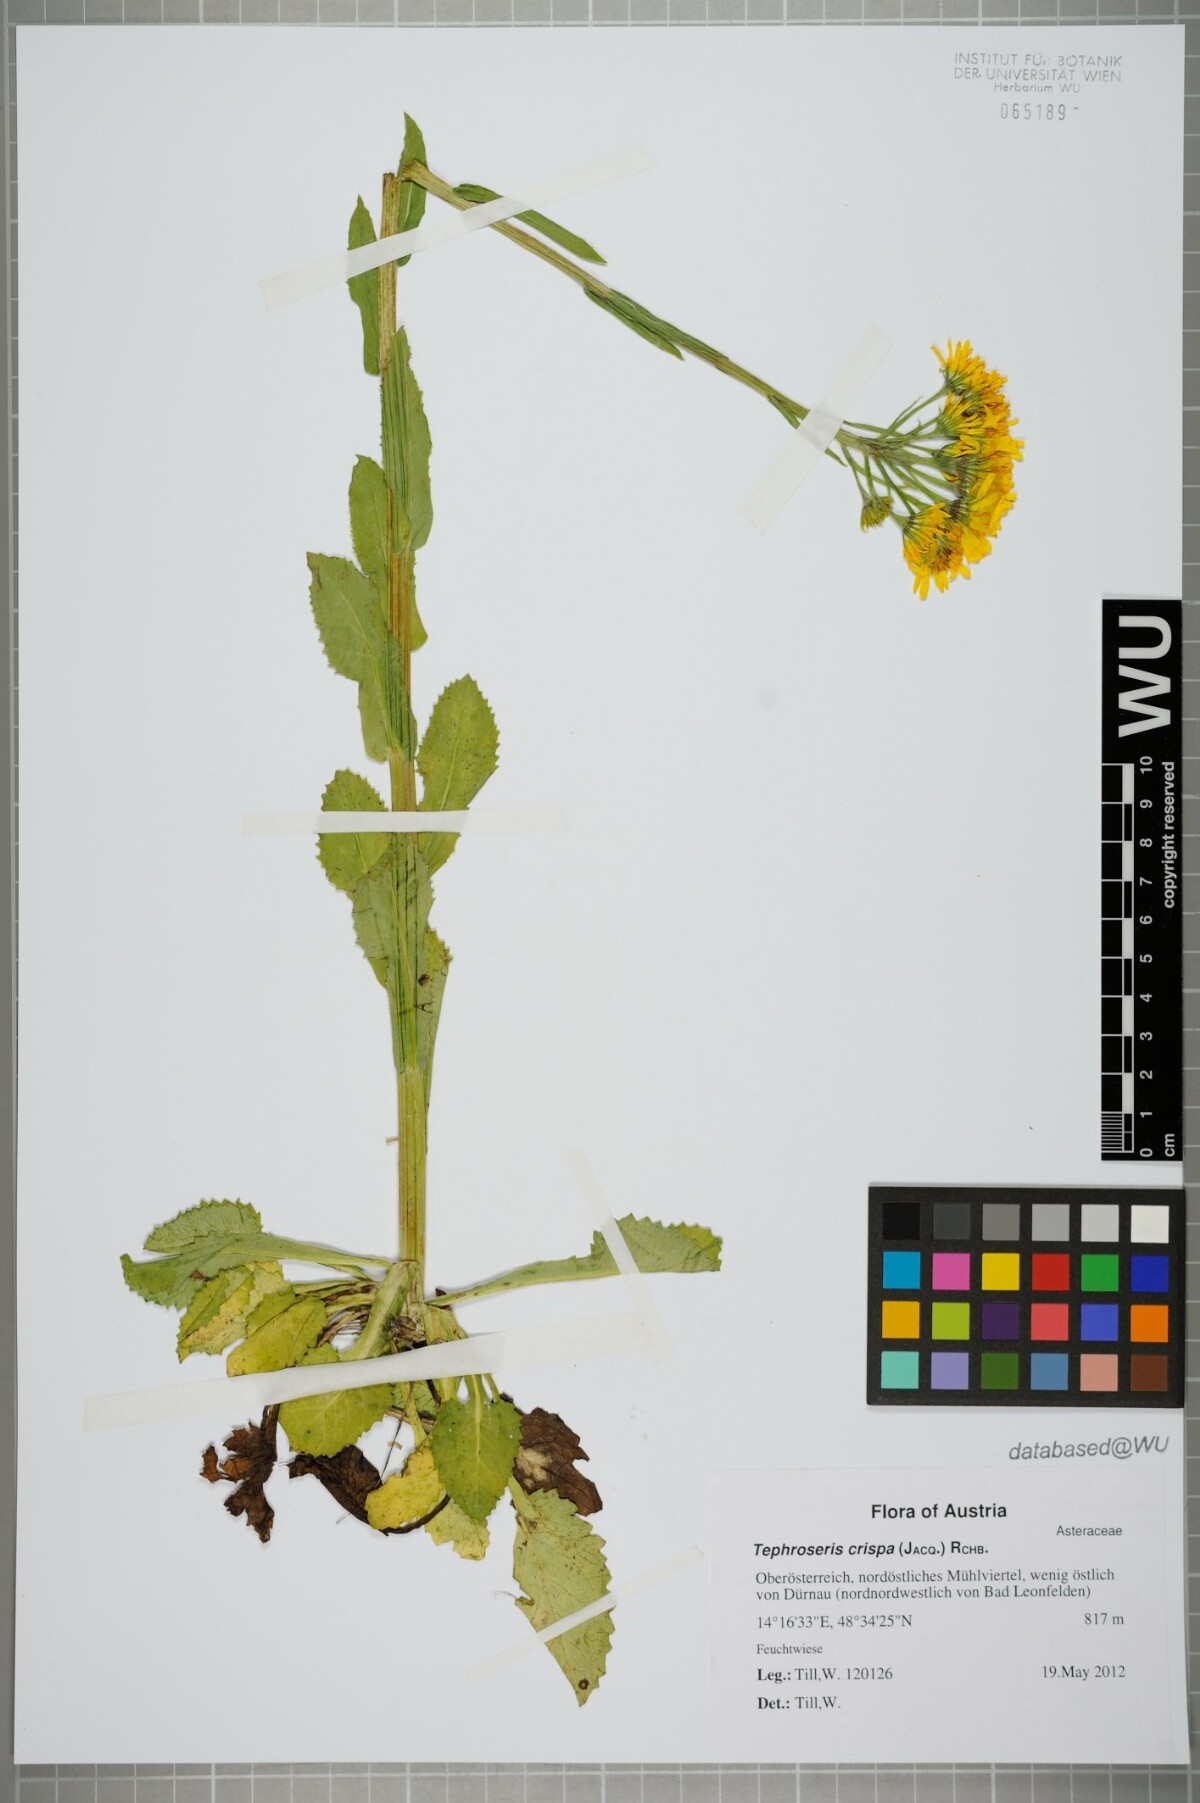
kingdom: Plantae
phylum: Tracheophyta
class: Magnoliopsida
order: Asterales
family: Asteraceae
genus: Tephroseris
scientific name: Tephroseris crispa
